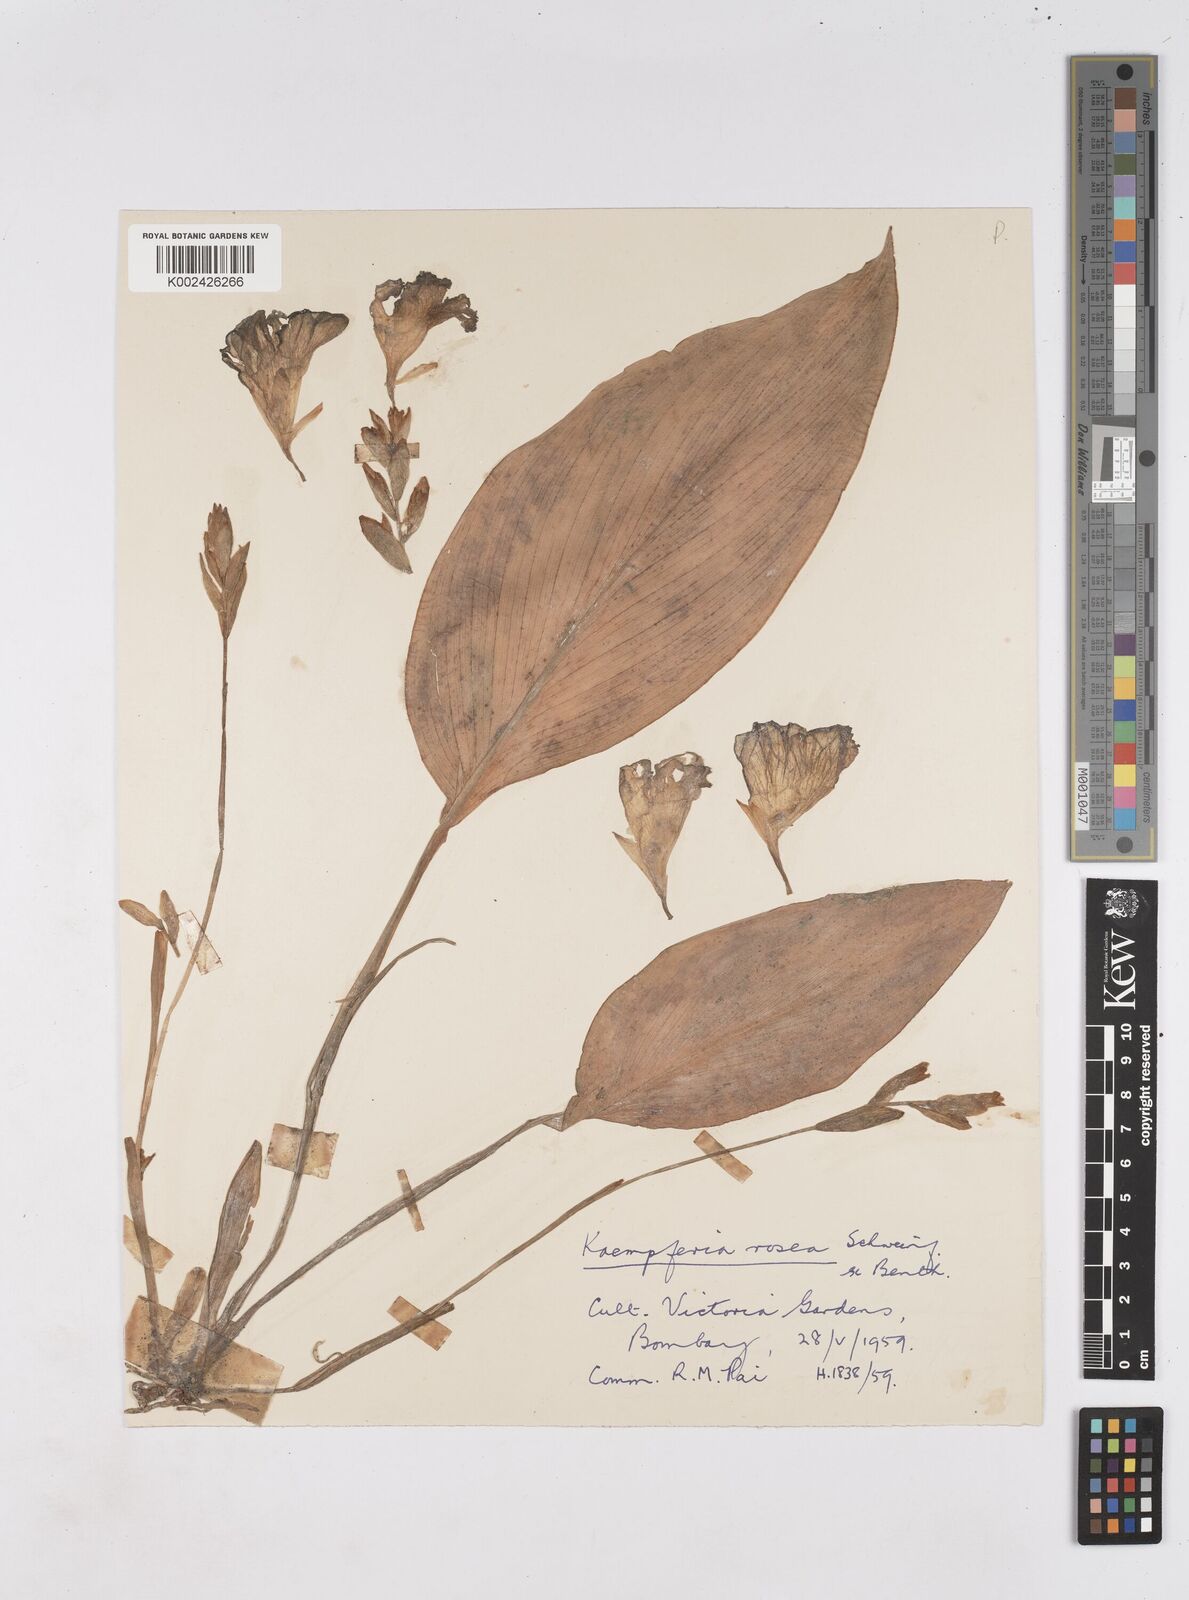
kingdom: Plantae
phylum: Tracheophyta
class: Liliopsida
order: Zingiberales
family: Zingiberaceae
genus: Siphonochilus
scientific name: Siphonochilus kirkii
